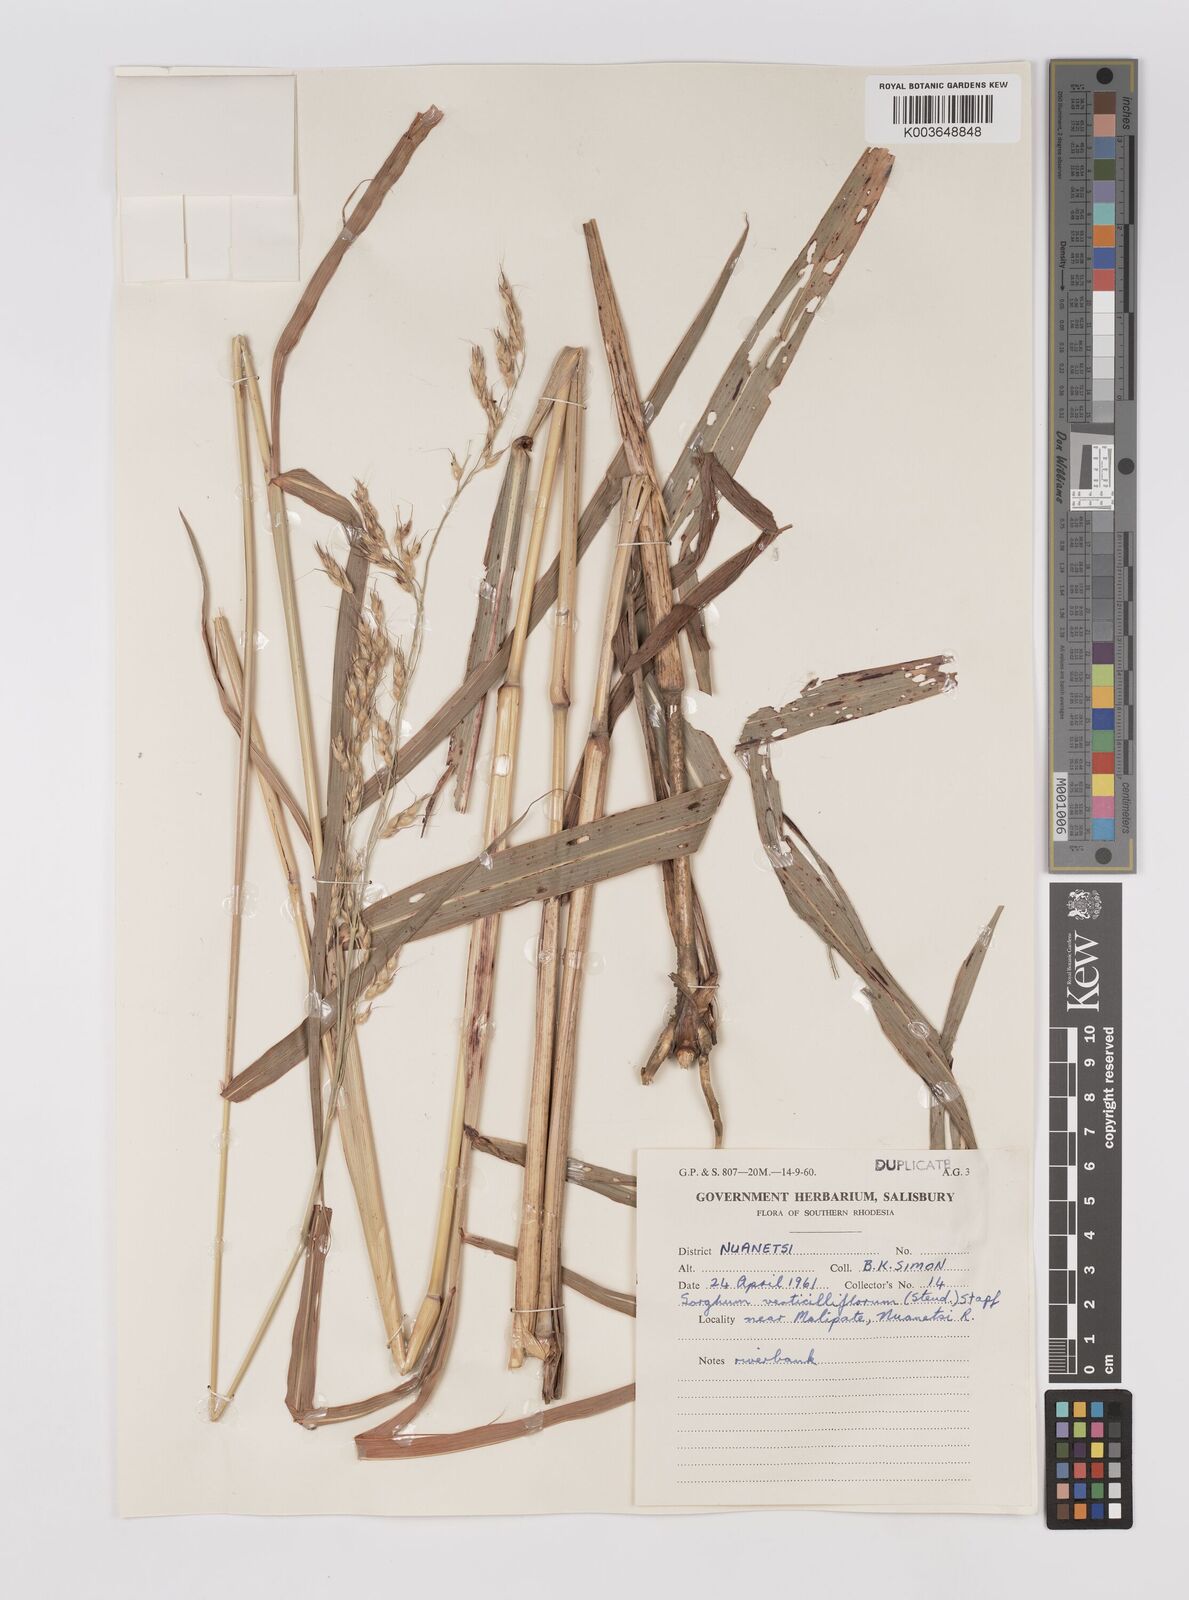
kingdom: Plantae
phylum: Tracheophyta
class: Liliopsida
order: Poales
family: Poaceae
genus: Sorghum
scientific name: Sorghum arundinaceum
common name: Sorghum
